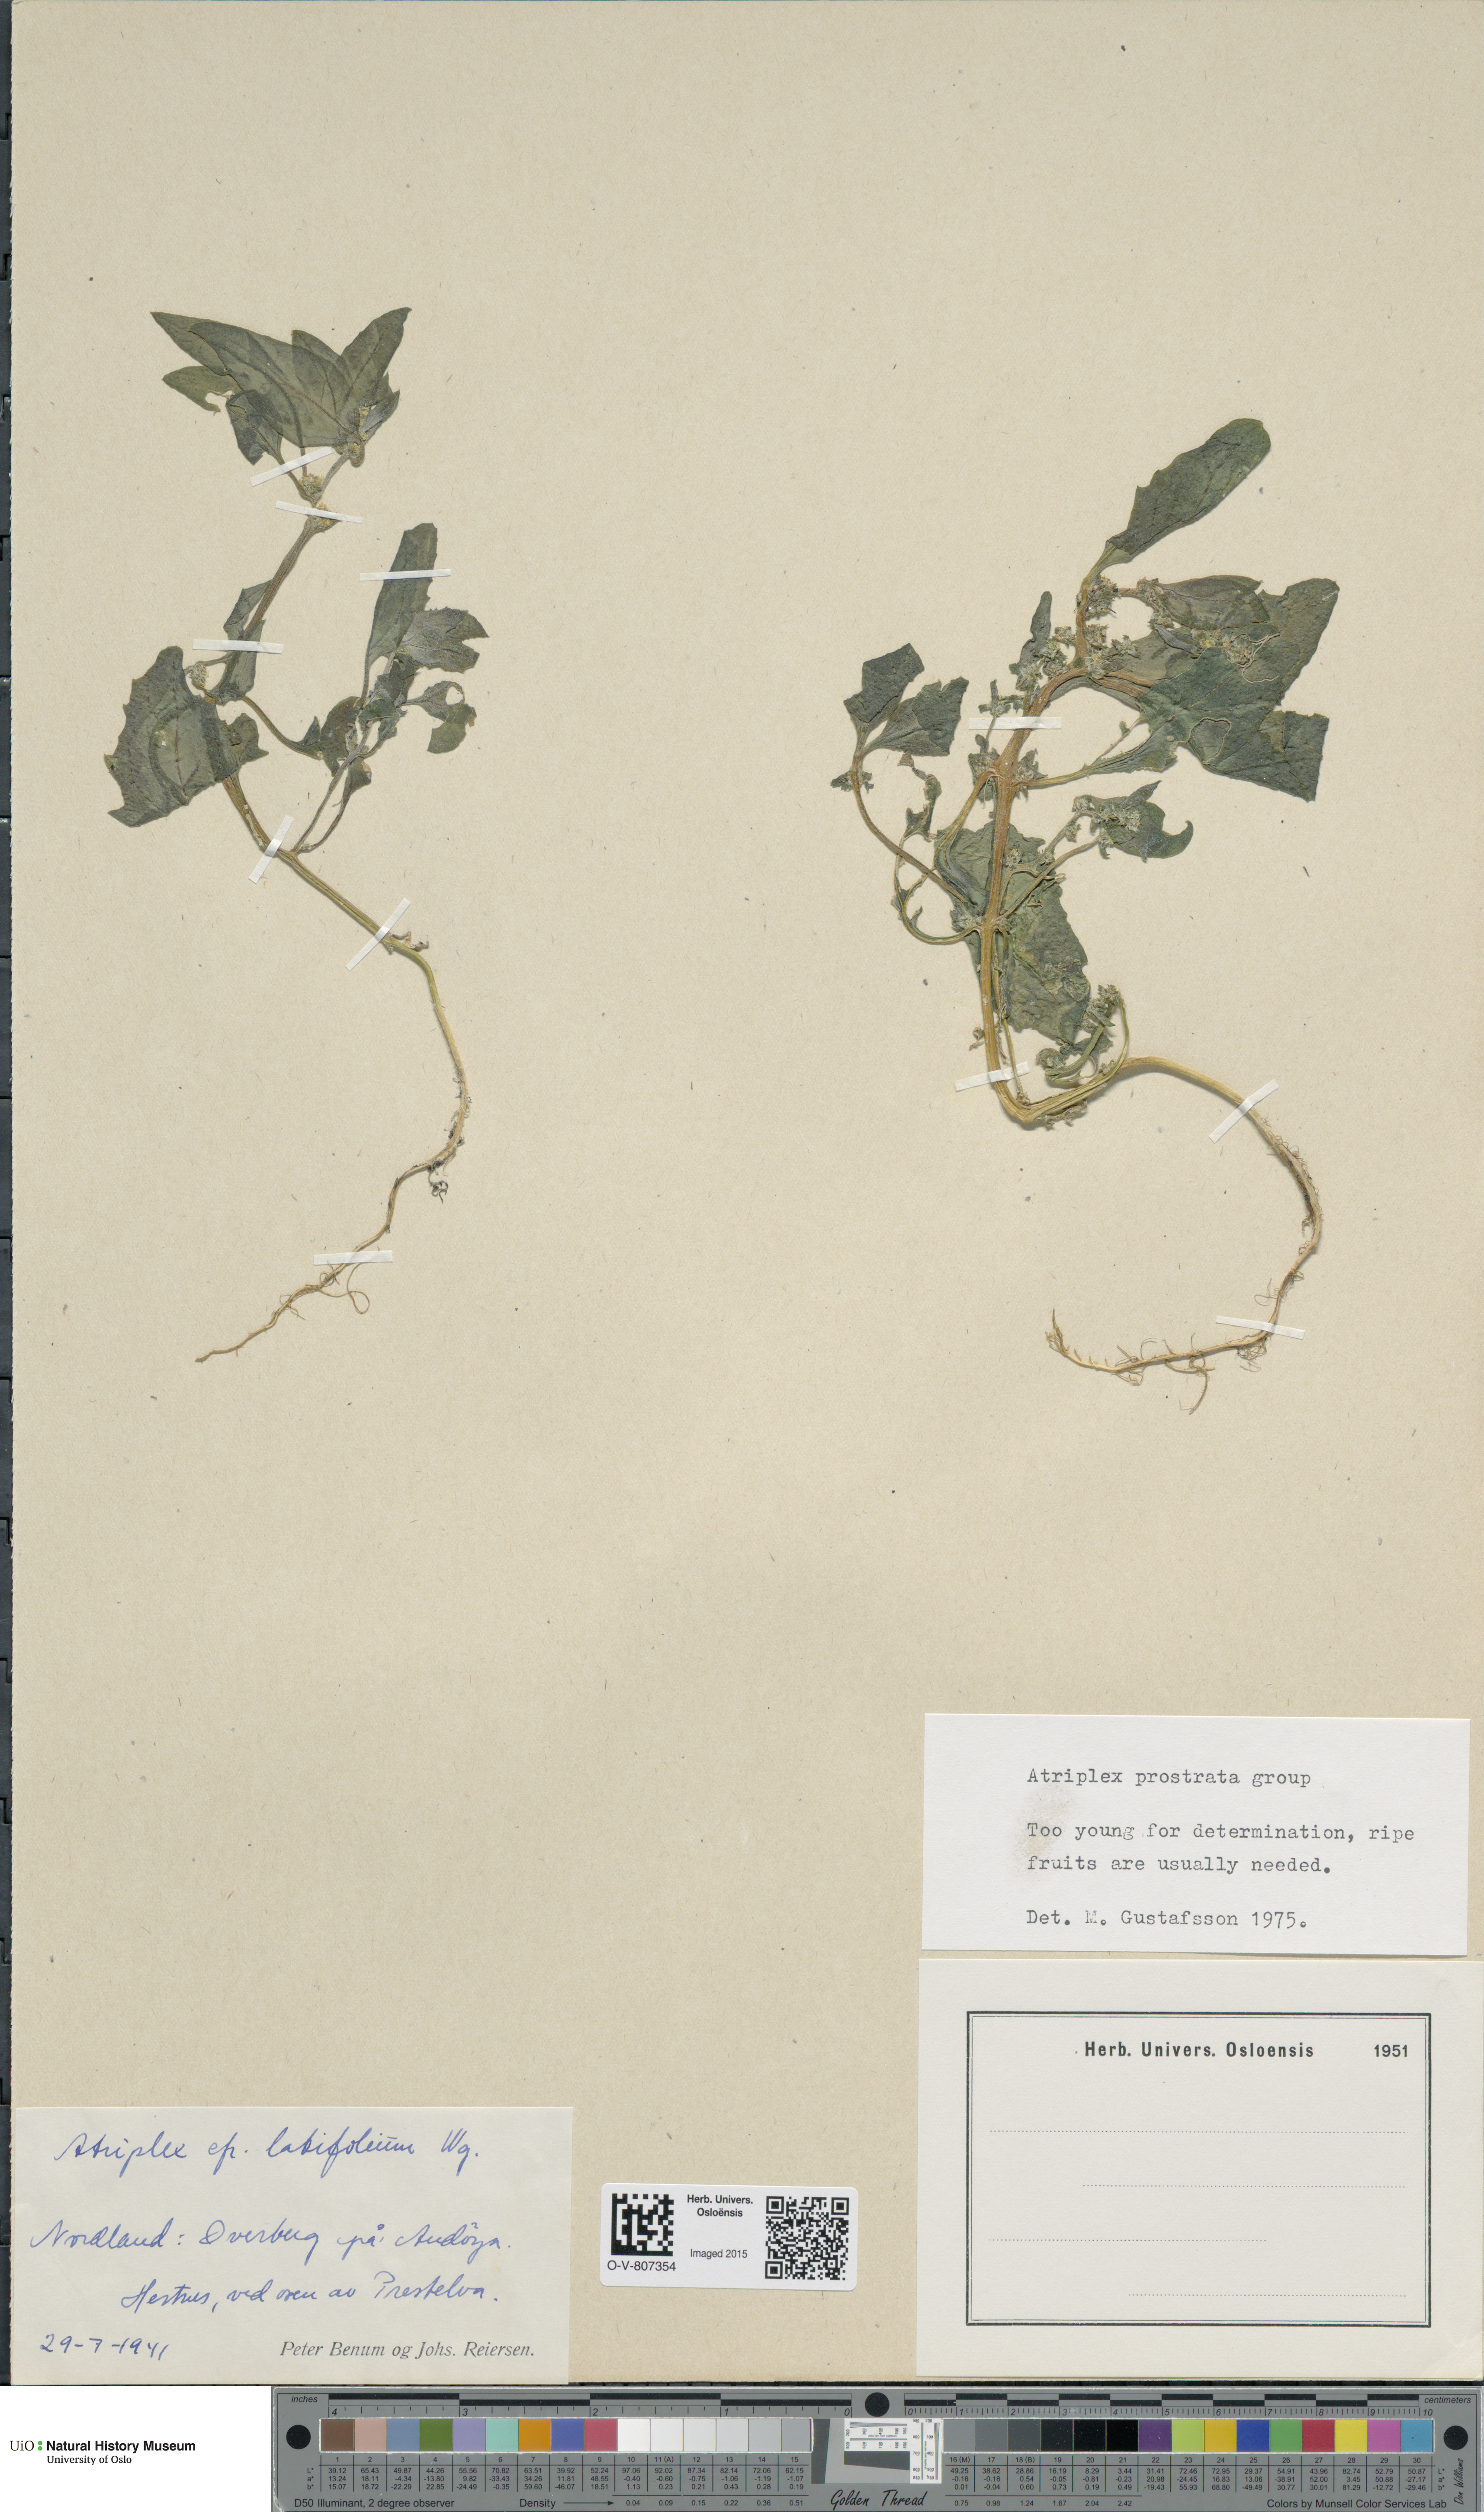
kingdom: Plantae
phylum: Tracheophyta
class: Magnoliopsida
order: Caryophyllales
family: Amaranthaceae
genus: Atriplex
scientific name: Atriplex prostrata
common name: Spear-leaved orache
